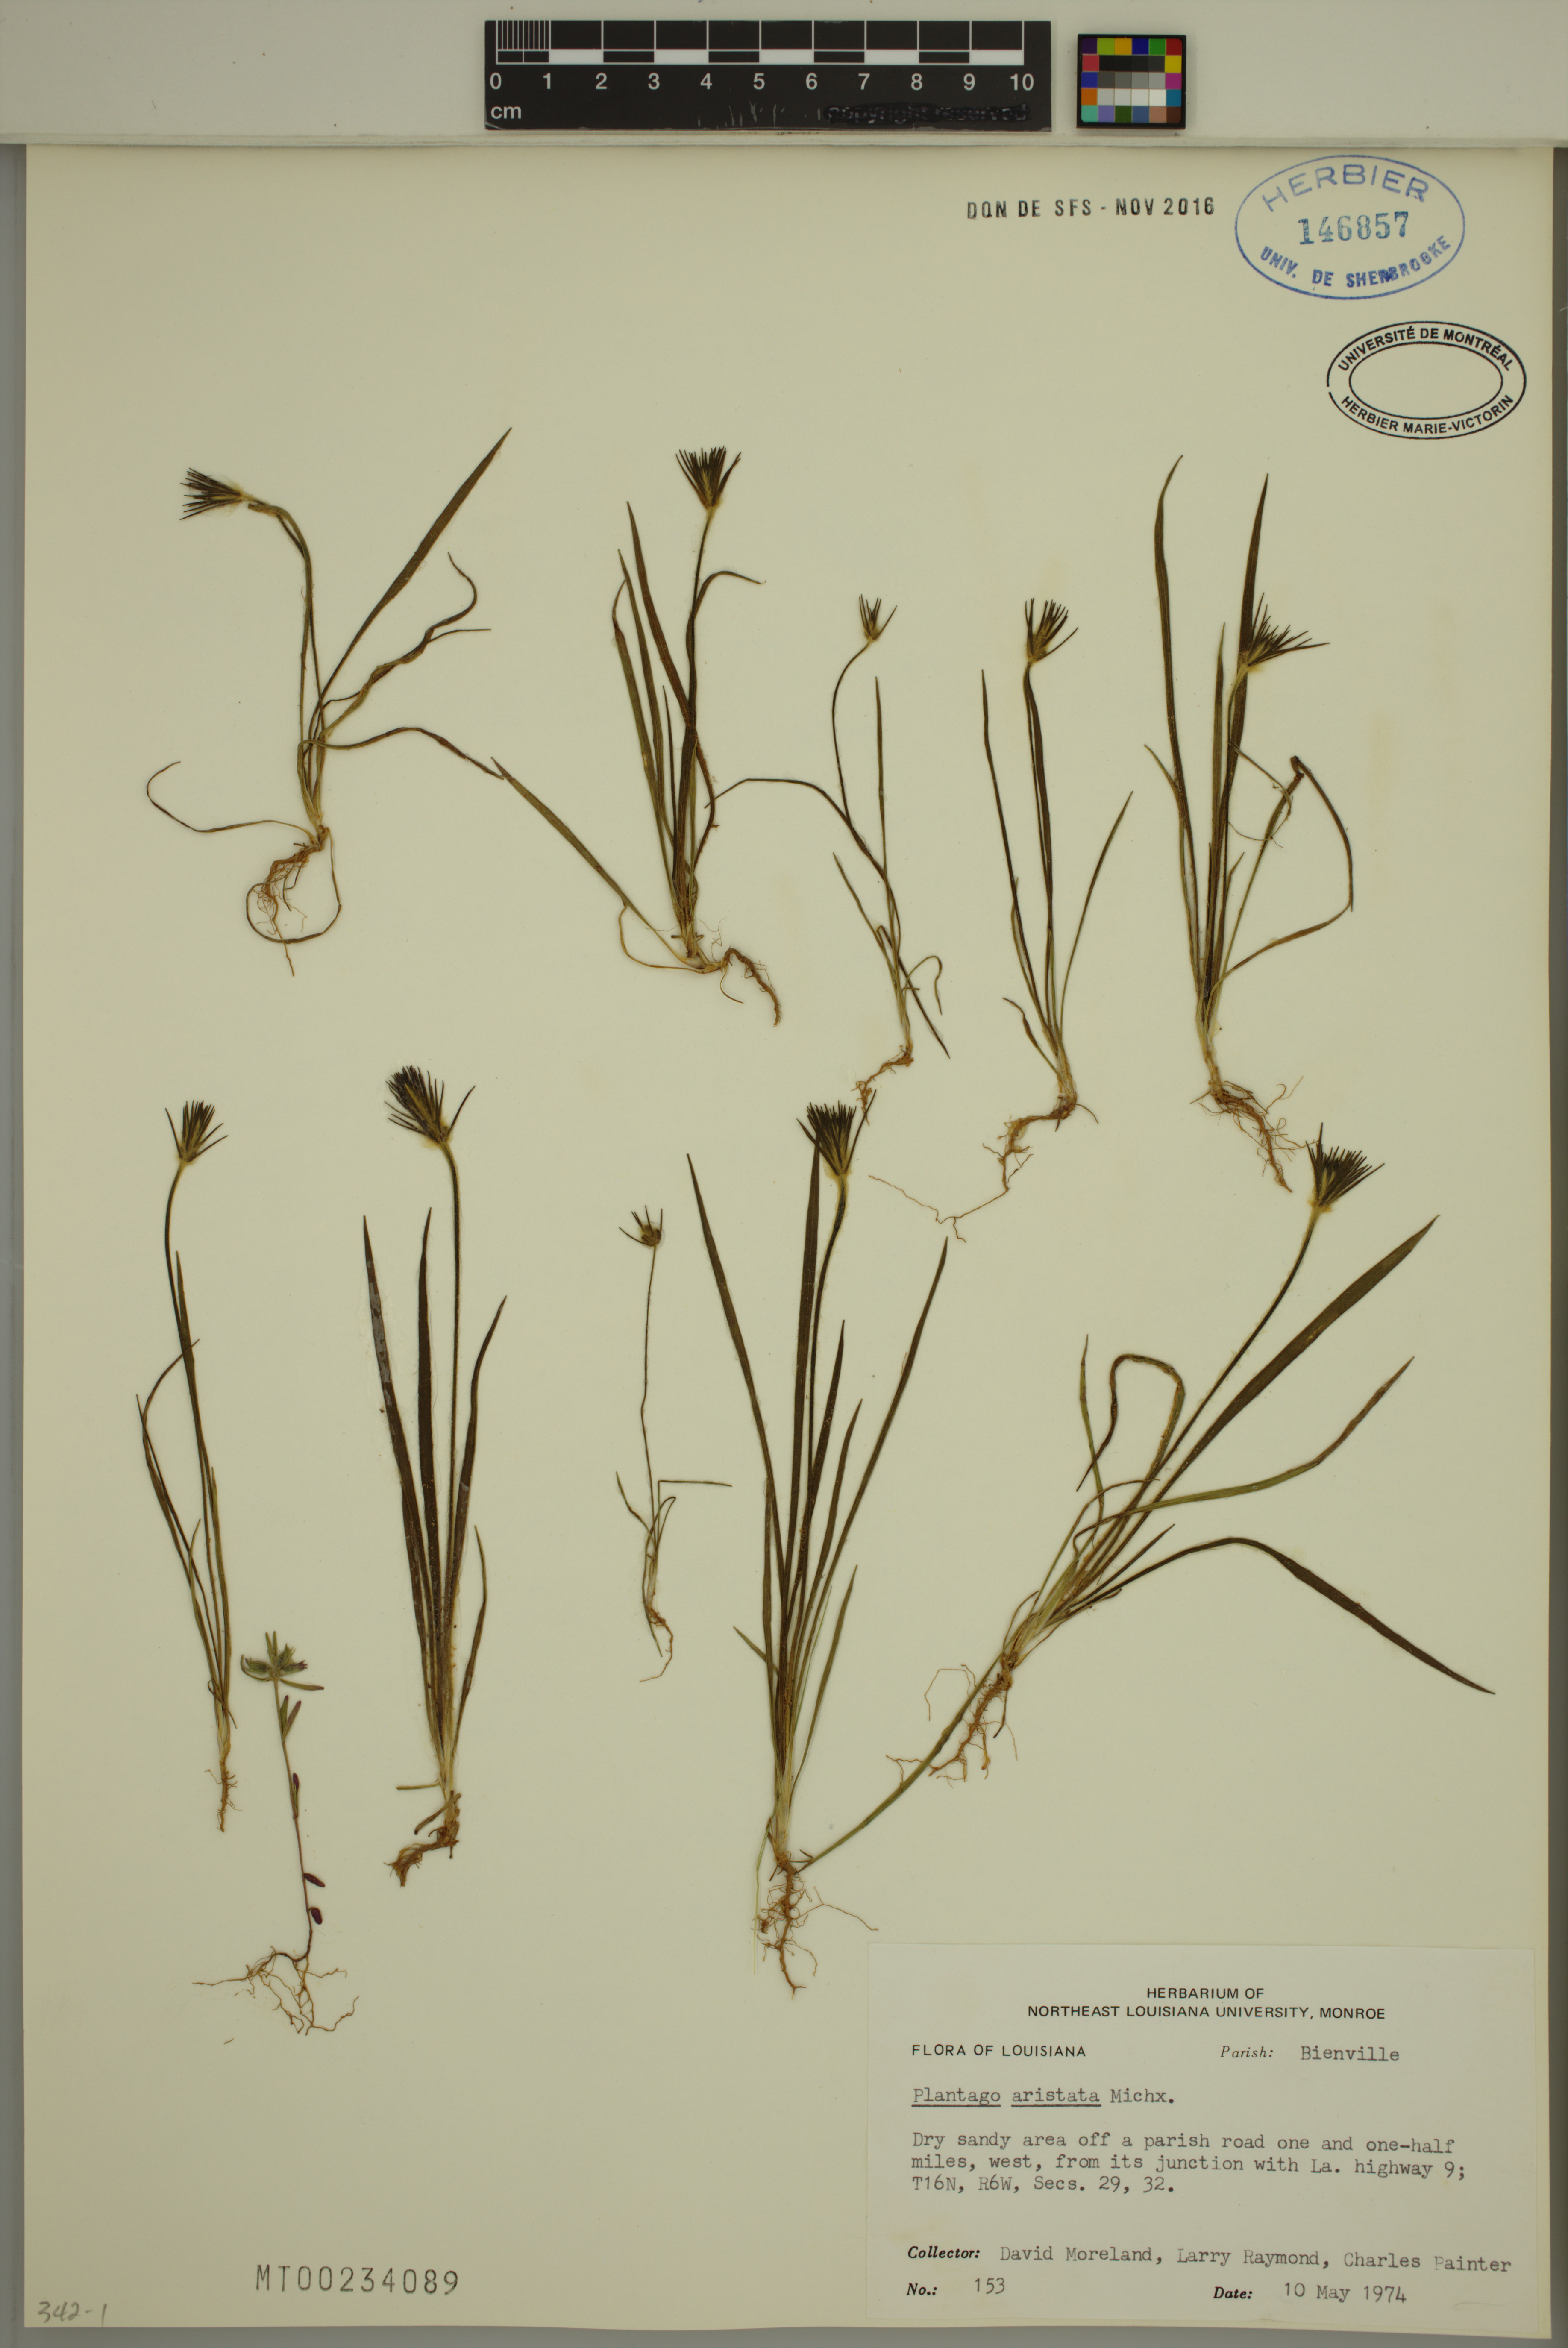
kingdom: Plantae
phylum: Tracheophyta
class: Magnoliopsida
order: Lamiales
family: Plantaginaceae
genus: Plantago
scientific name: Plantago aristata
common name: Bracted plantain
